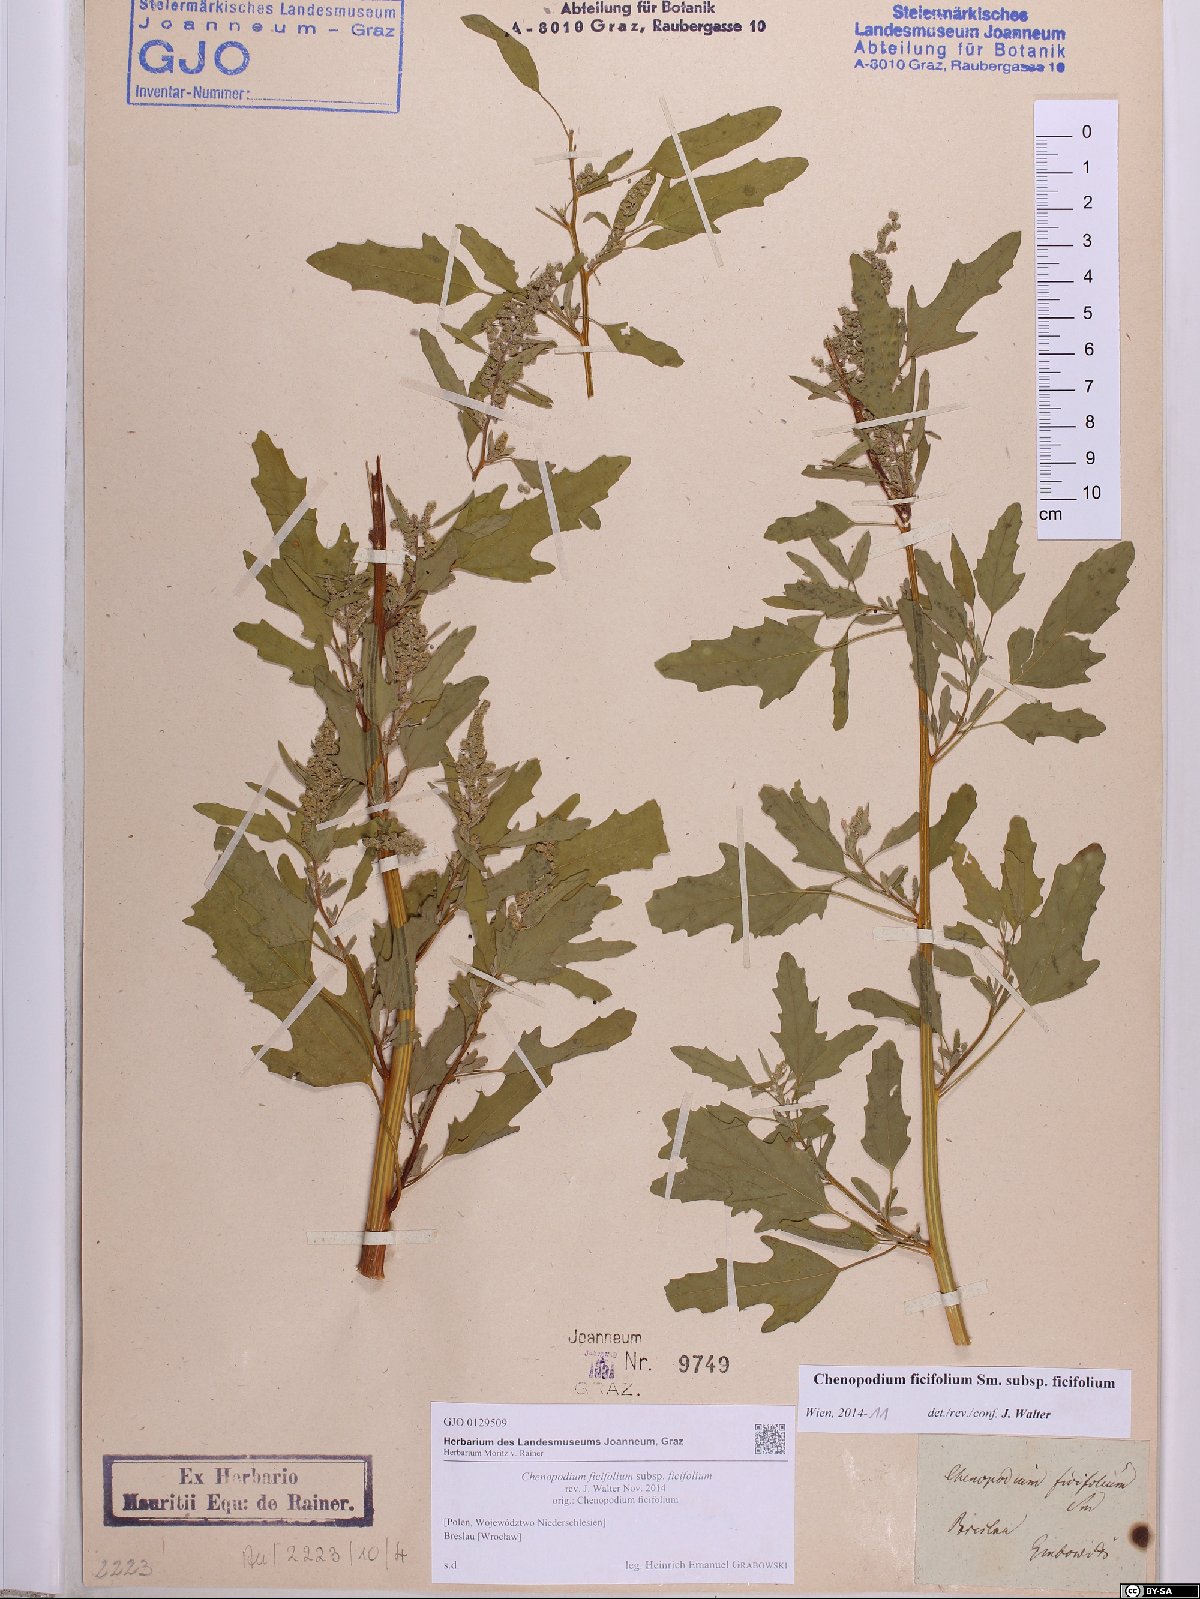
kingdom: Plantae
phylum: Tracheophyta
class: Magnoliopsida
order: Caryophyllales
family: Amaranthaceae
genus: Chenopodium
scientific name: Chenopodium ficifolium
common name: Fig-leaved goosefoot
